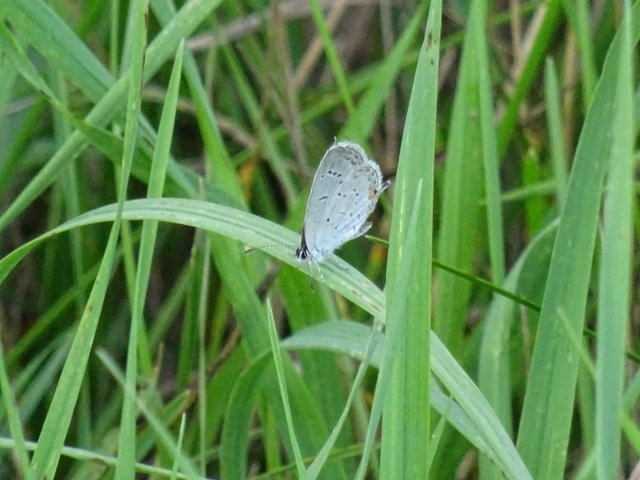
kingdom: Animalia
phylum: Arthropoda
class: Insecta
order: Lepidoptera
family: Lycaenidae
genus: Elkalyce
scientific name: Elkalyce comyntas
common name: Eastern Tailed-Blue
